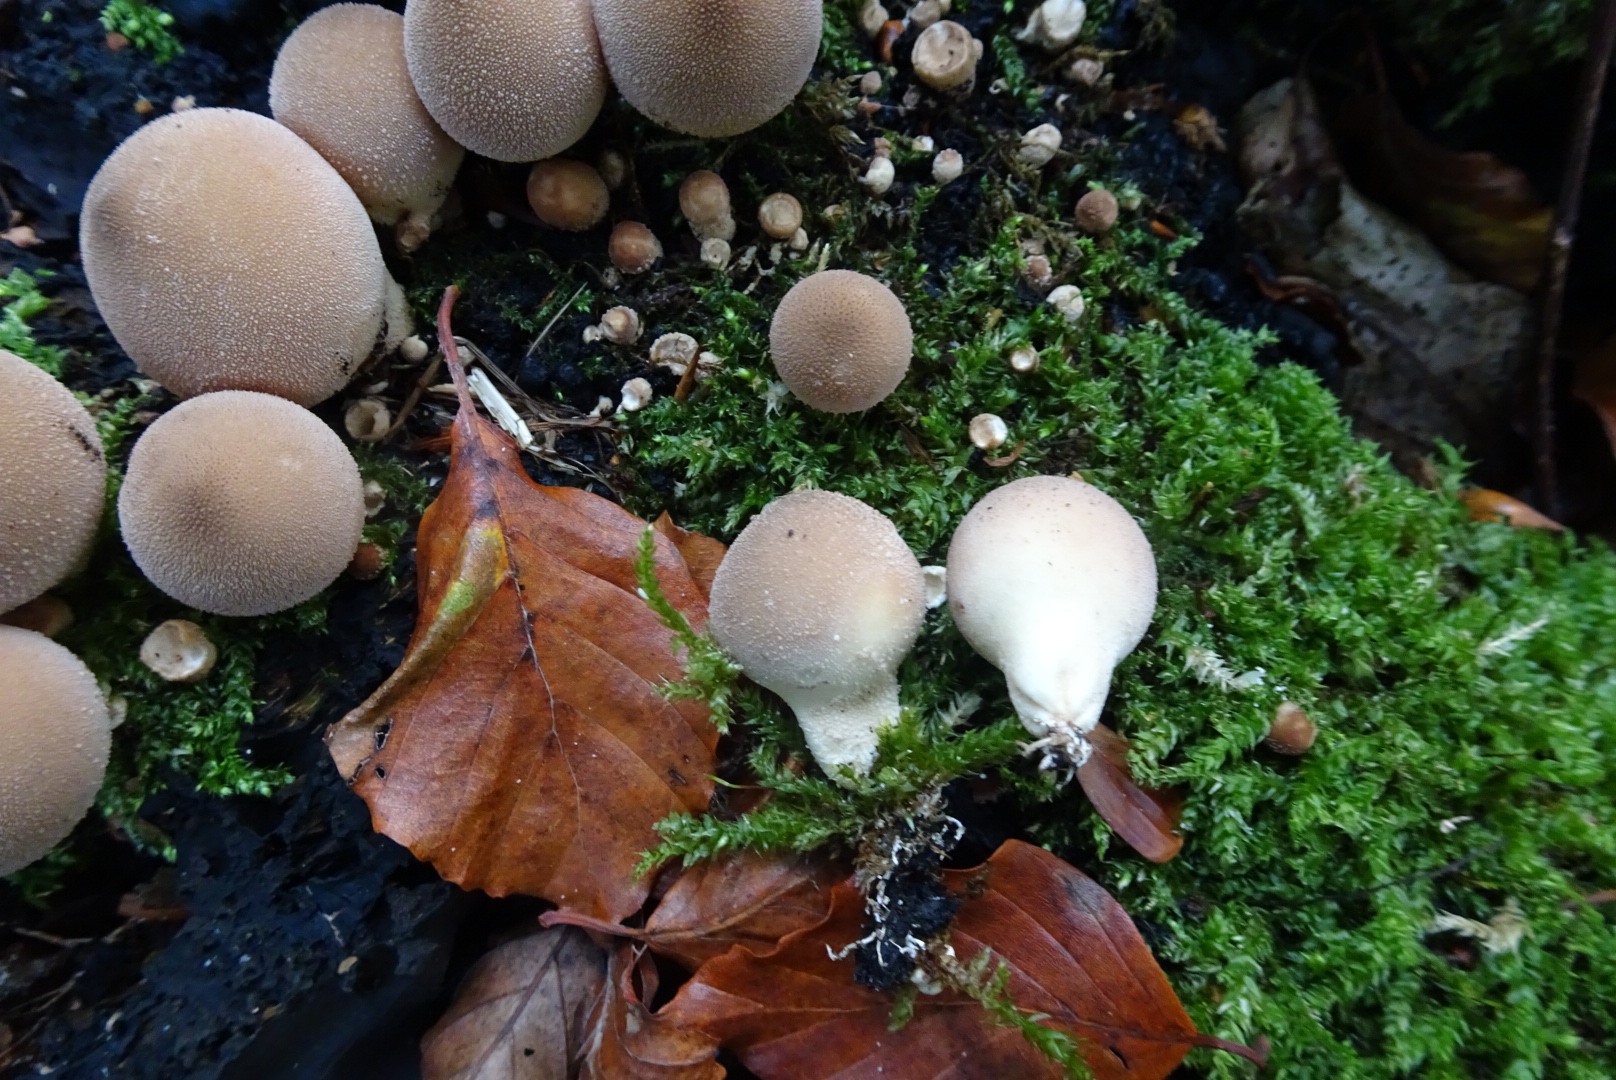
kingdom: Fungi
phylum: Basidiomycota
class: Agaricomycetes
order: Agaricales
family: Lycoperdaceae
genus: Apioperdon
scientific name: Apioperdon pyriforme
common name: pære-støvbold
